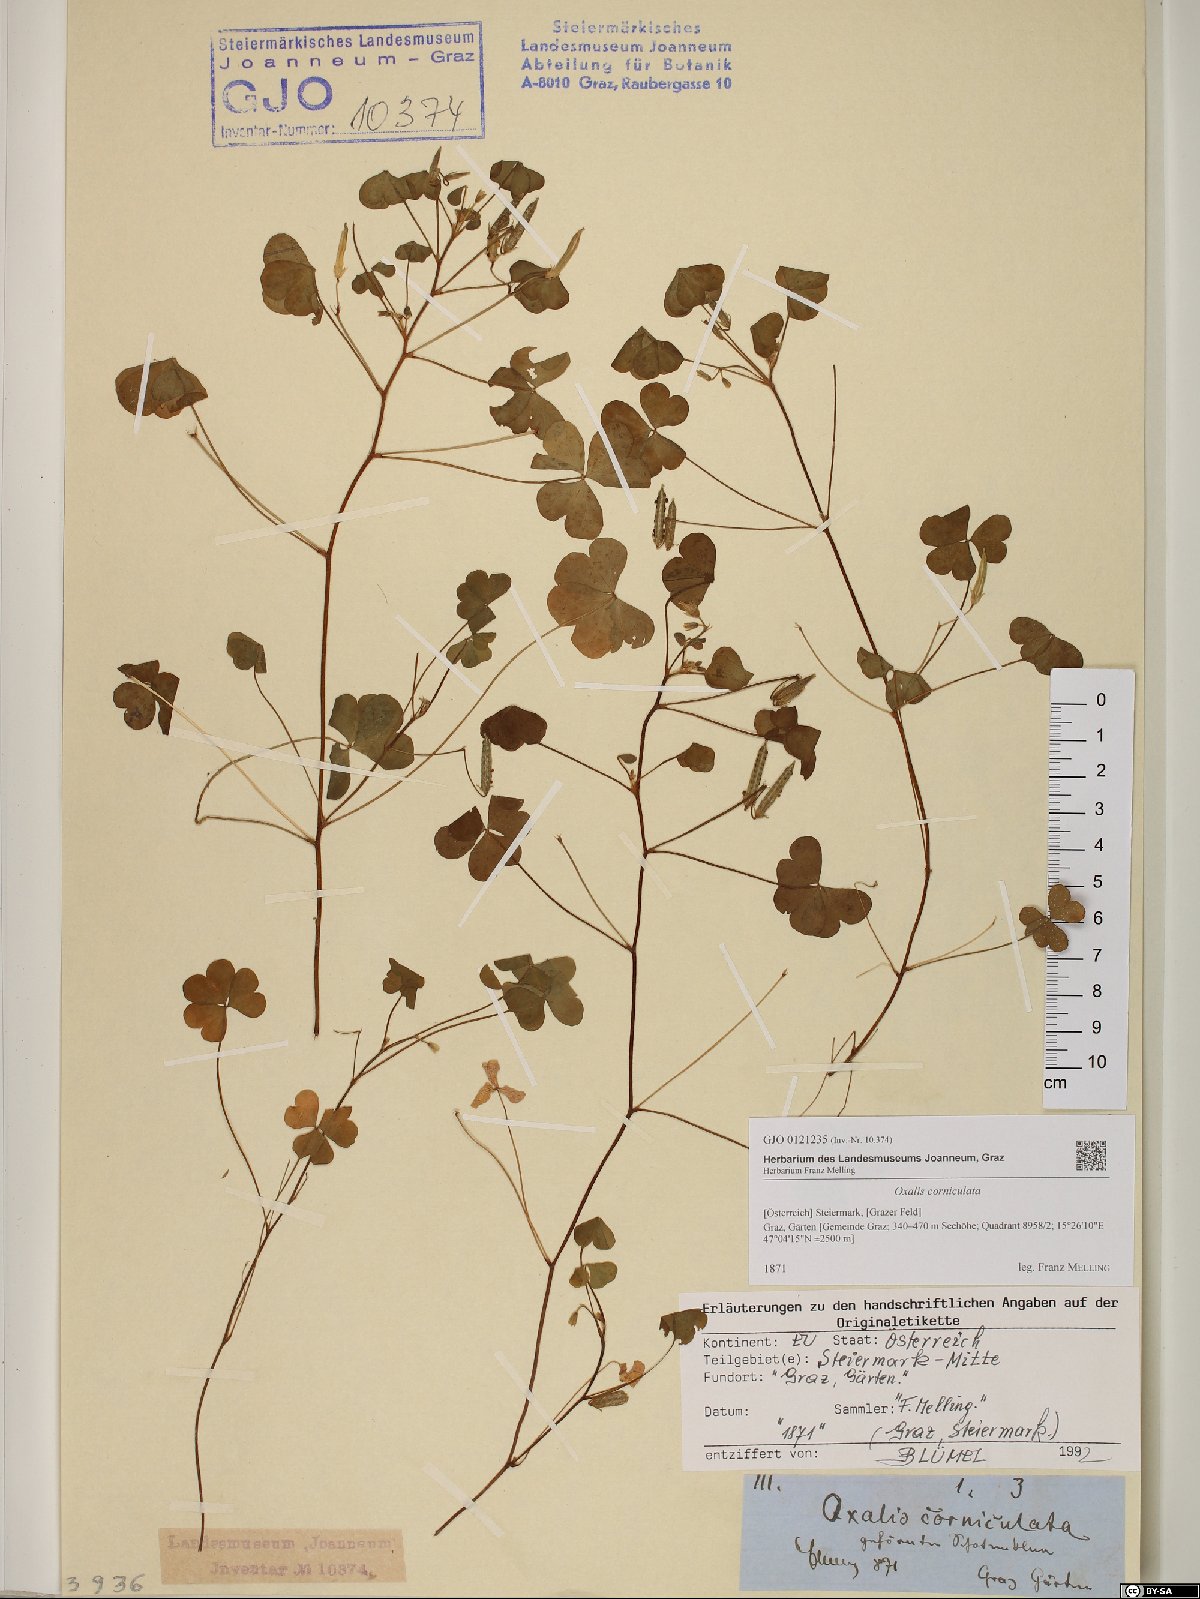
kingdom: Plantae
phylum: Tracheophyta
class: Magnoliopsida
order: Oxalidales
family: Oxalidaceae
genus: Oxalis
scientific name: Oxalis corniculata
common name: Procumbent yellow-sorrel
